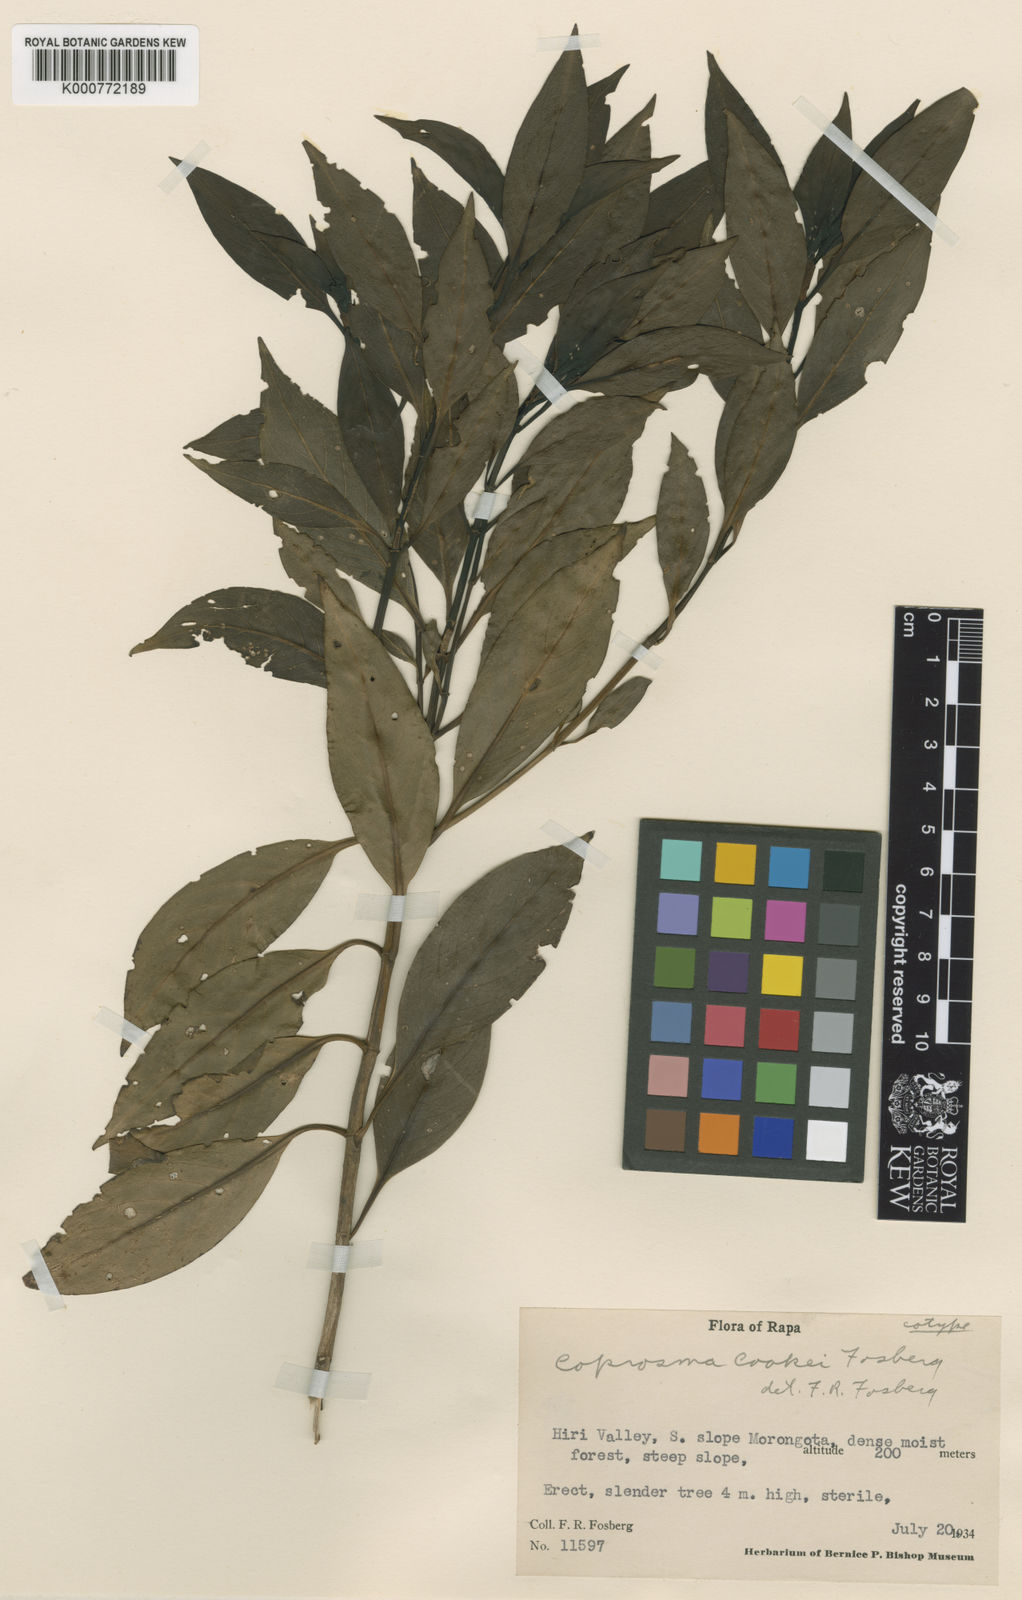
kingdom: Plantae
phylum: Tracheophyta
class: Magnoliopsida
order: Gentianales
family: Rubiaceae
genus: Coprosma
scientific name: Coprosma cookei
